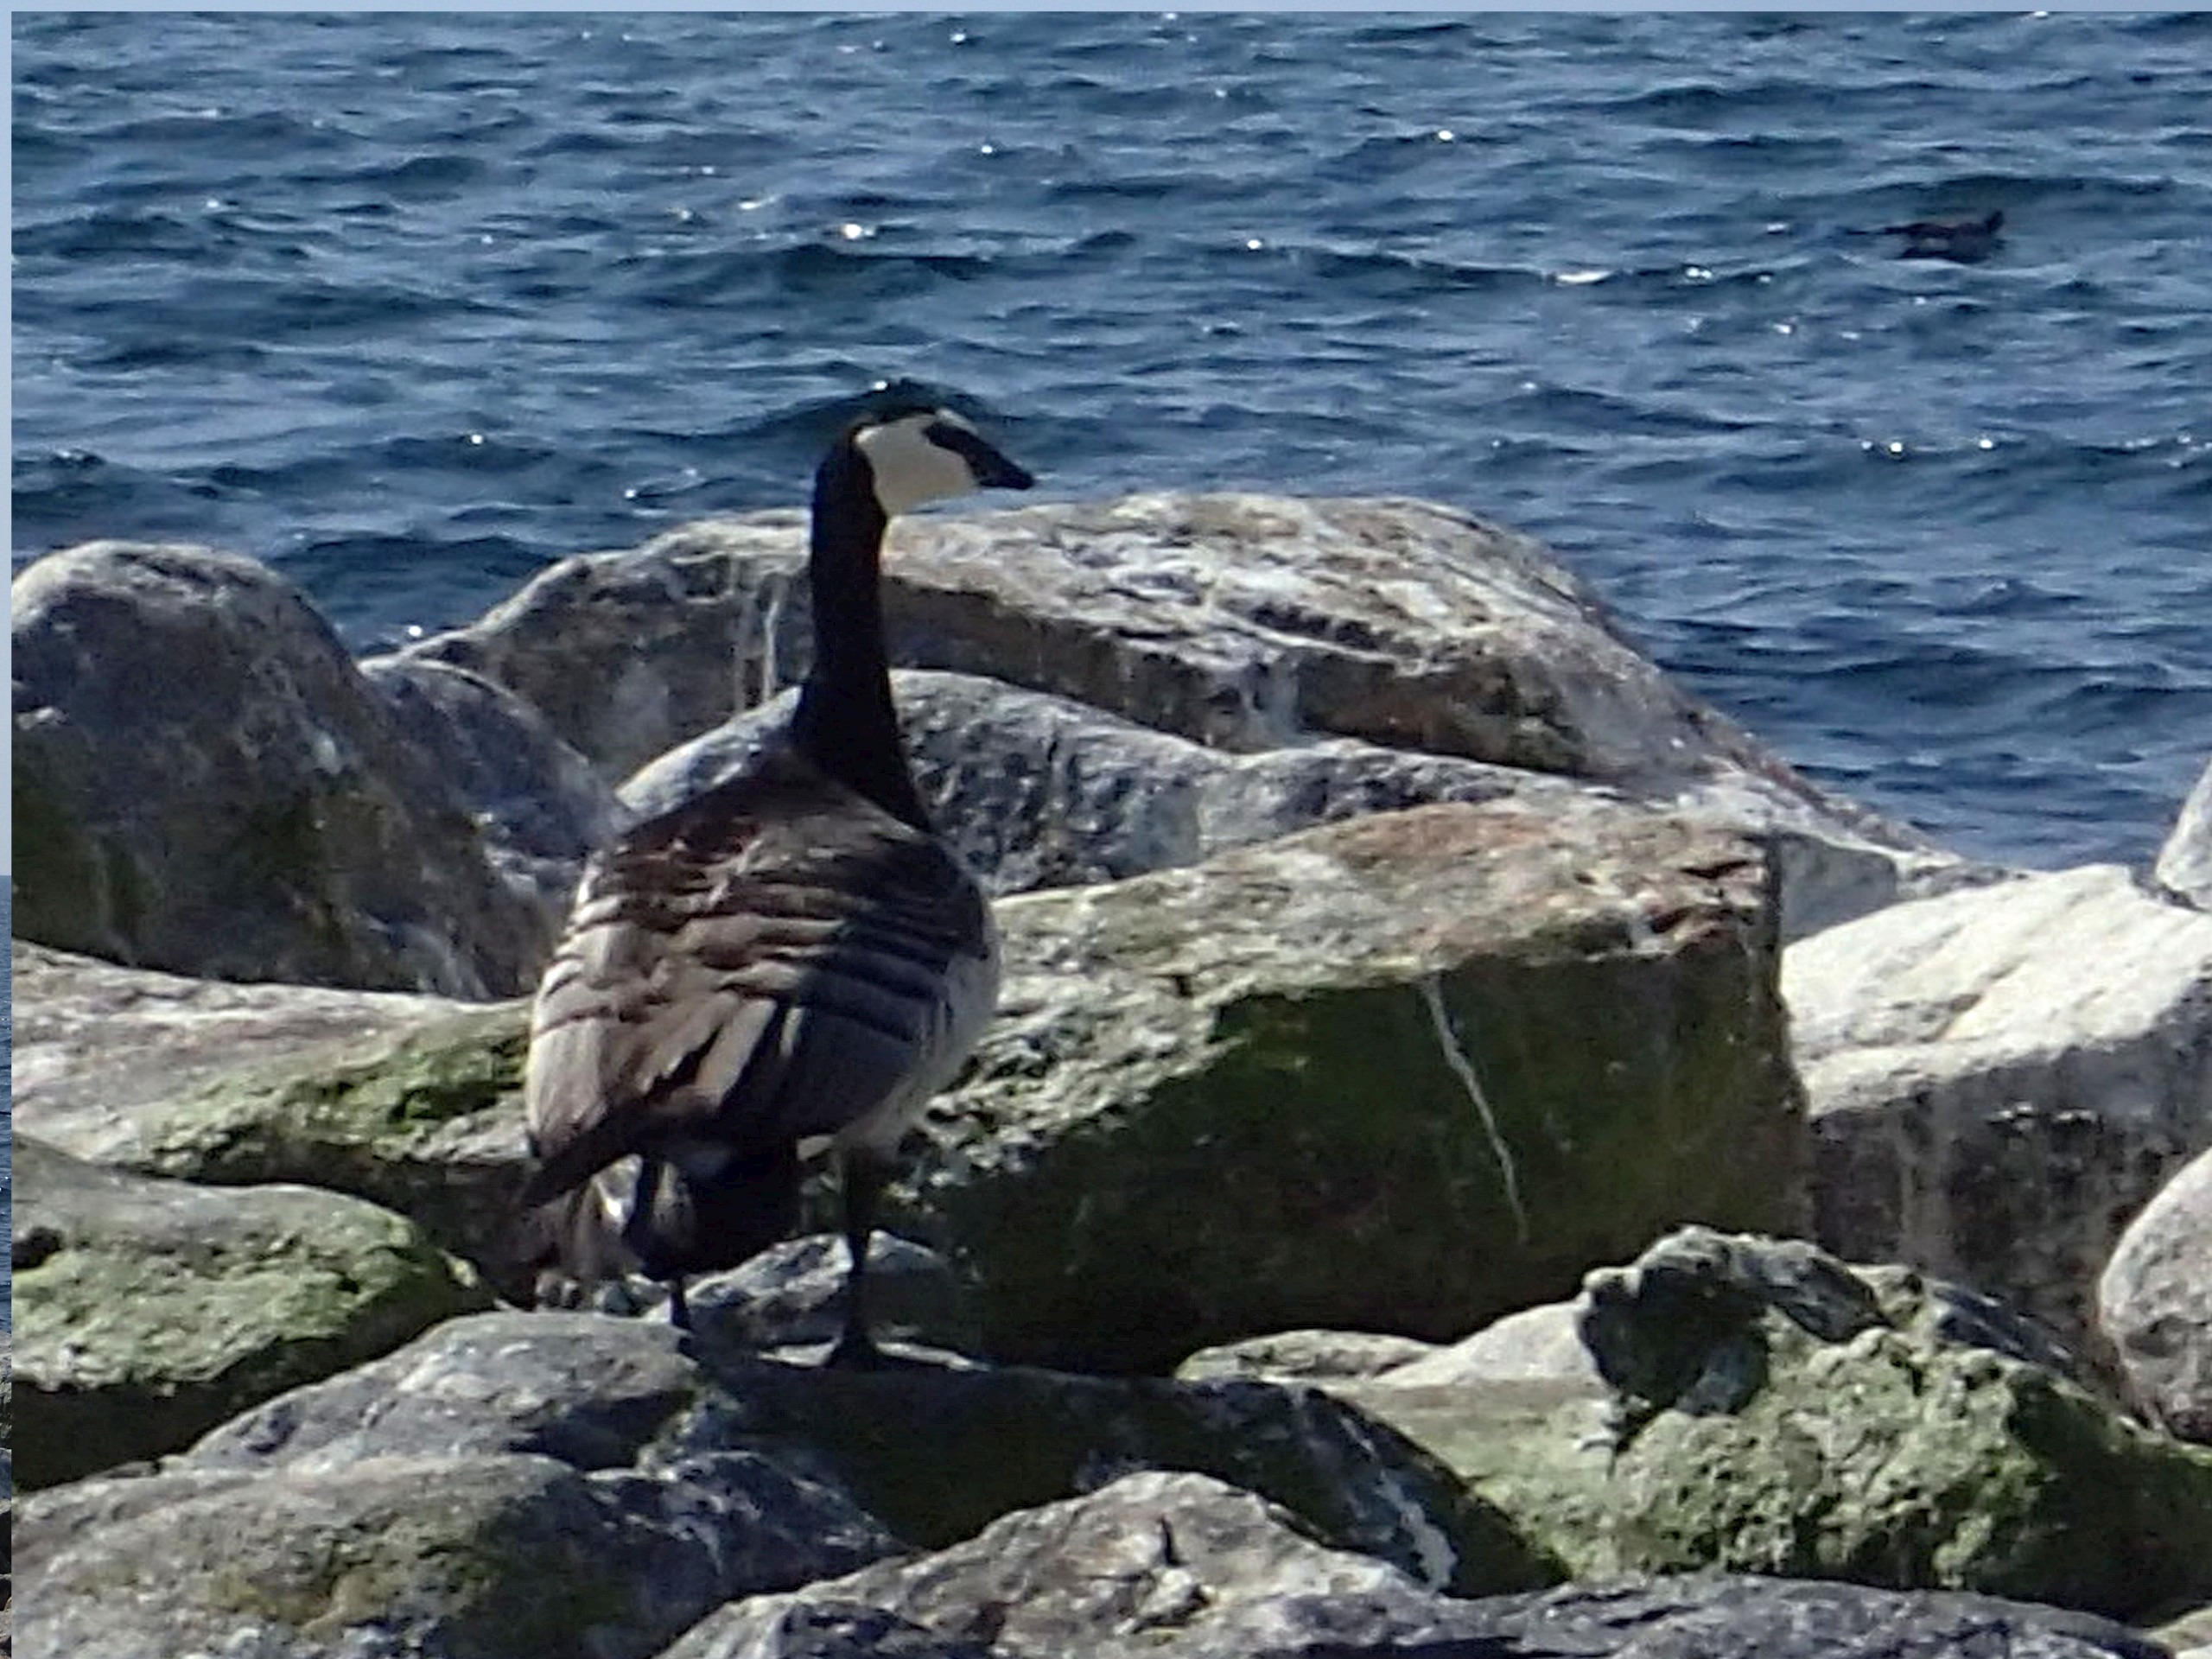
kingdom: Animalia
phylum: Chordata
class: Aves
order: Anseriformes
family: Anatidae
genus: Branta
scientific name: Branta leucopsis
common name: Bramgås
